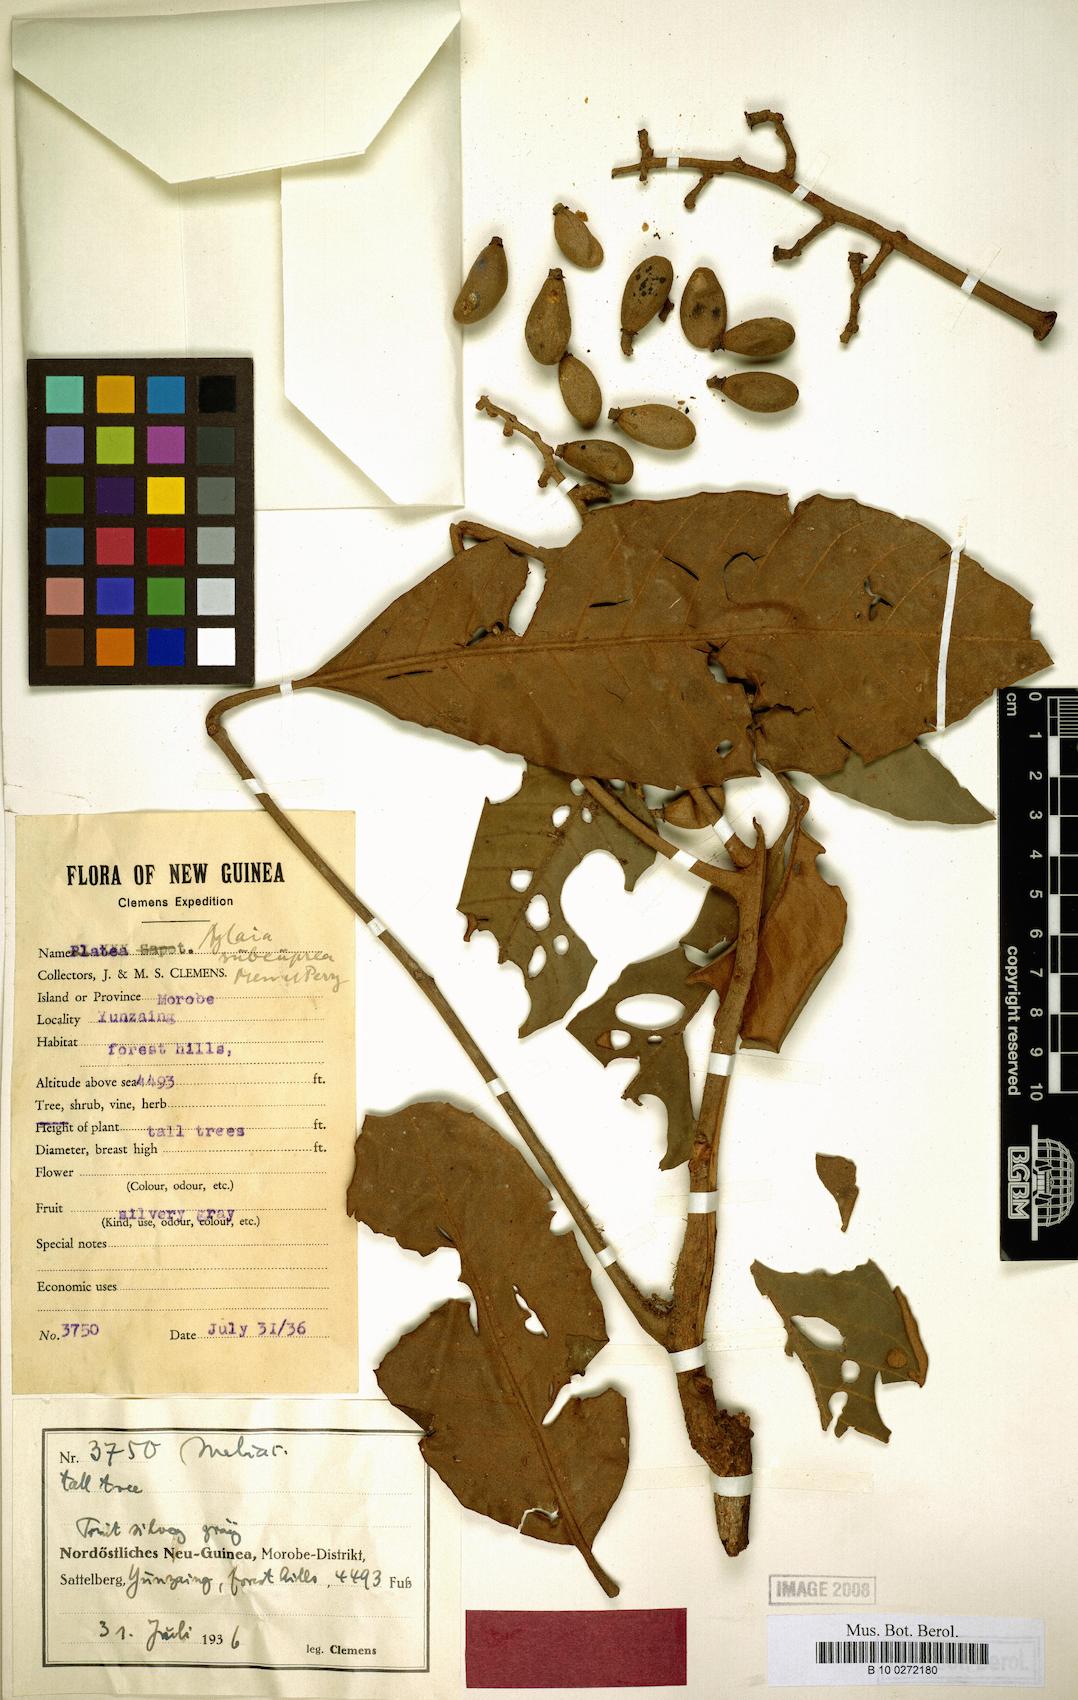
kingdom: Plantae
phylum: Tracheophyta
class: Magnoliopsida
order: Sapindales
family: Meliaceae
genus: Aglaia
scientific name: Aglaia subcuprea
